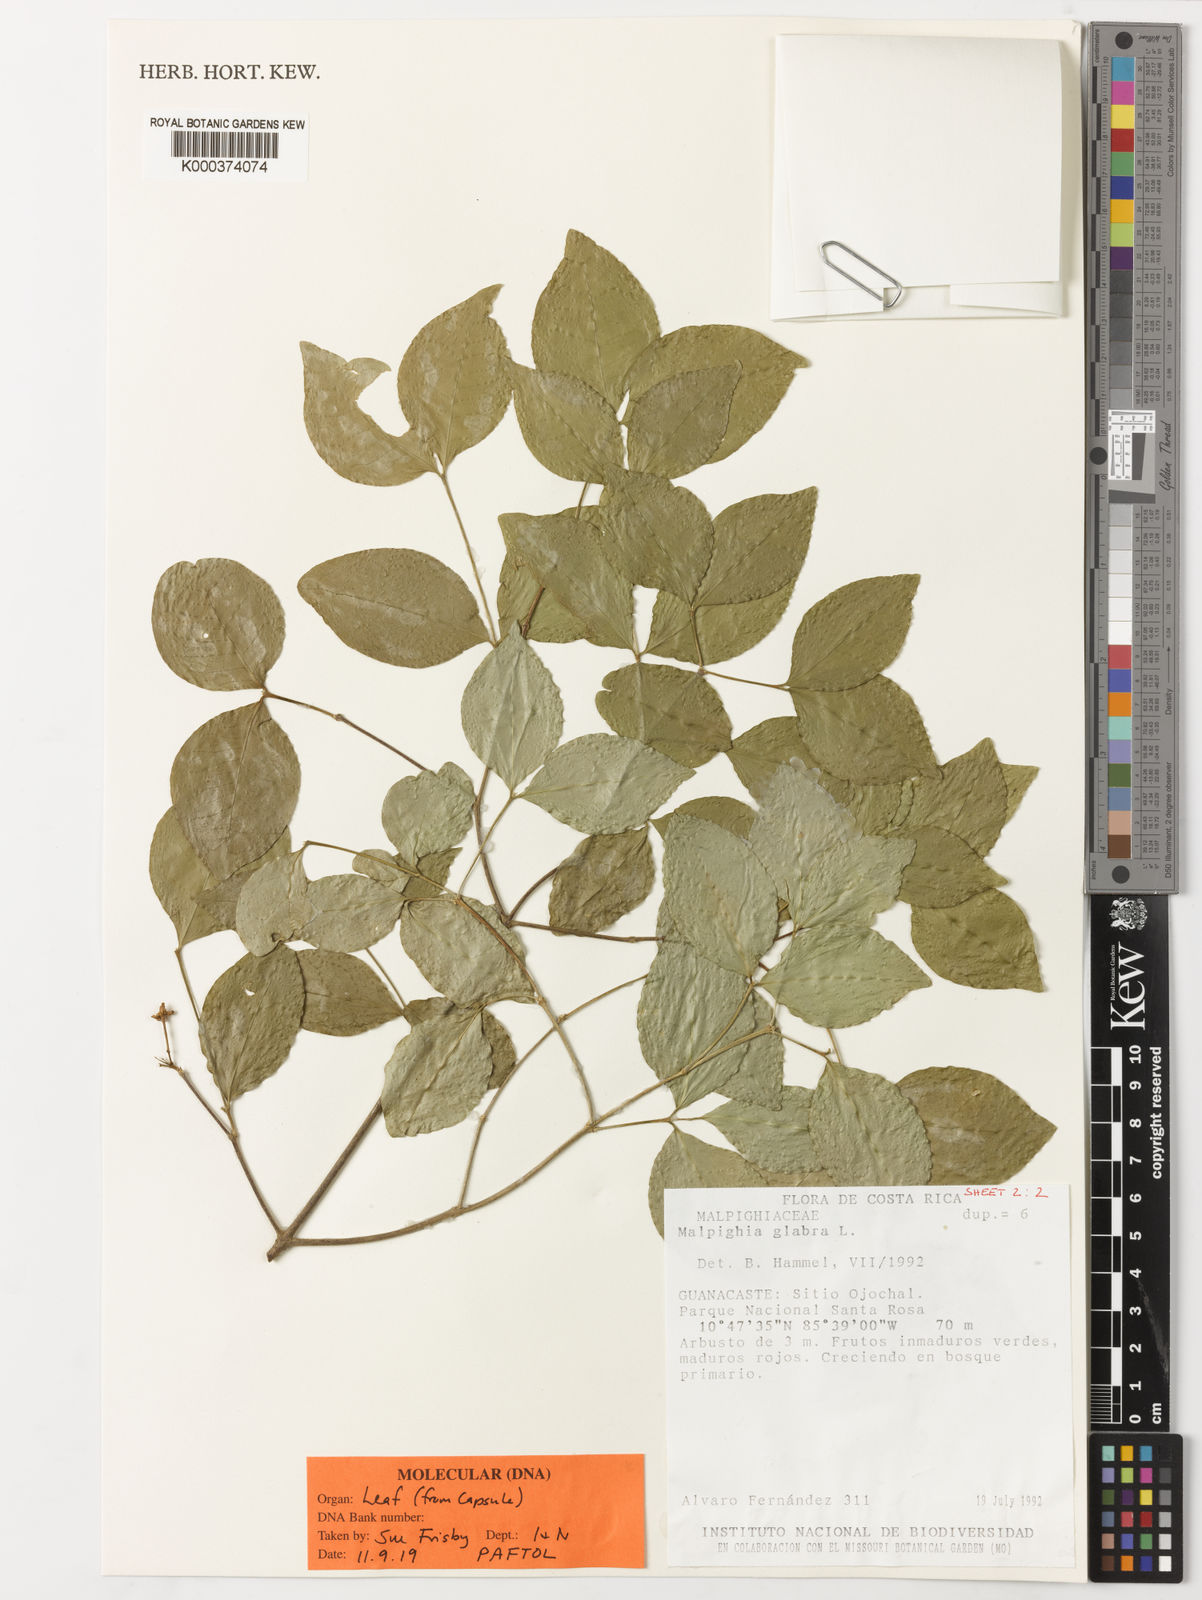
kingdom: Plantae
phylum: Tracheophyta
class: Magnoliopsida
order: Malpighiales
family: Malpighiaceae
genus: Malpighia
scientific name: Malpighia glabra
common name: Barbados cherry
